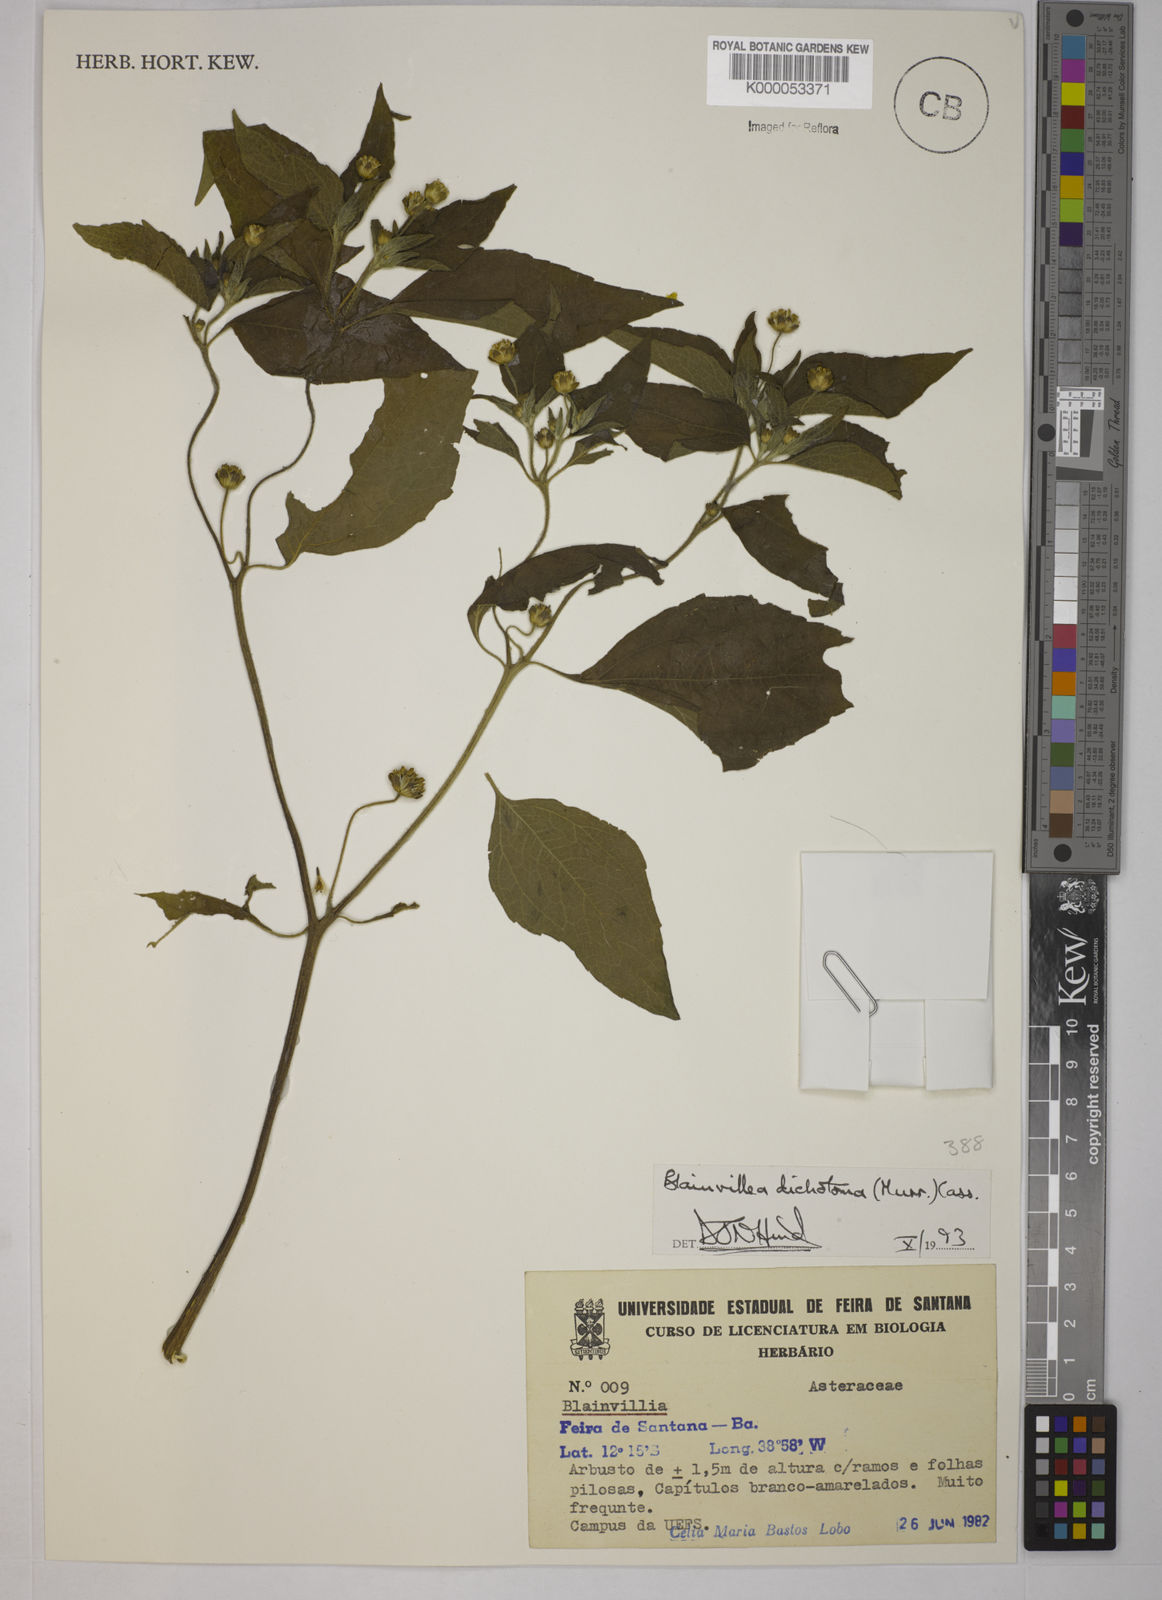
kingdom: Plantae
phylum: Tracheophyta
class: Magnoliopsida
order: Asterales
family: Asteraceae
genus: Blainvillea
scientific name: Blainvillea acmella
